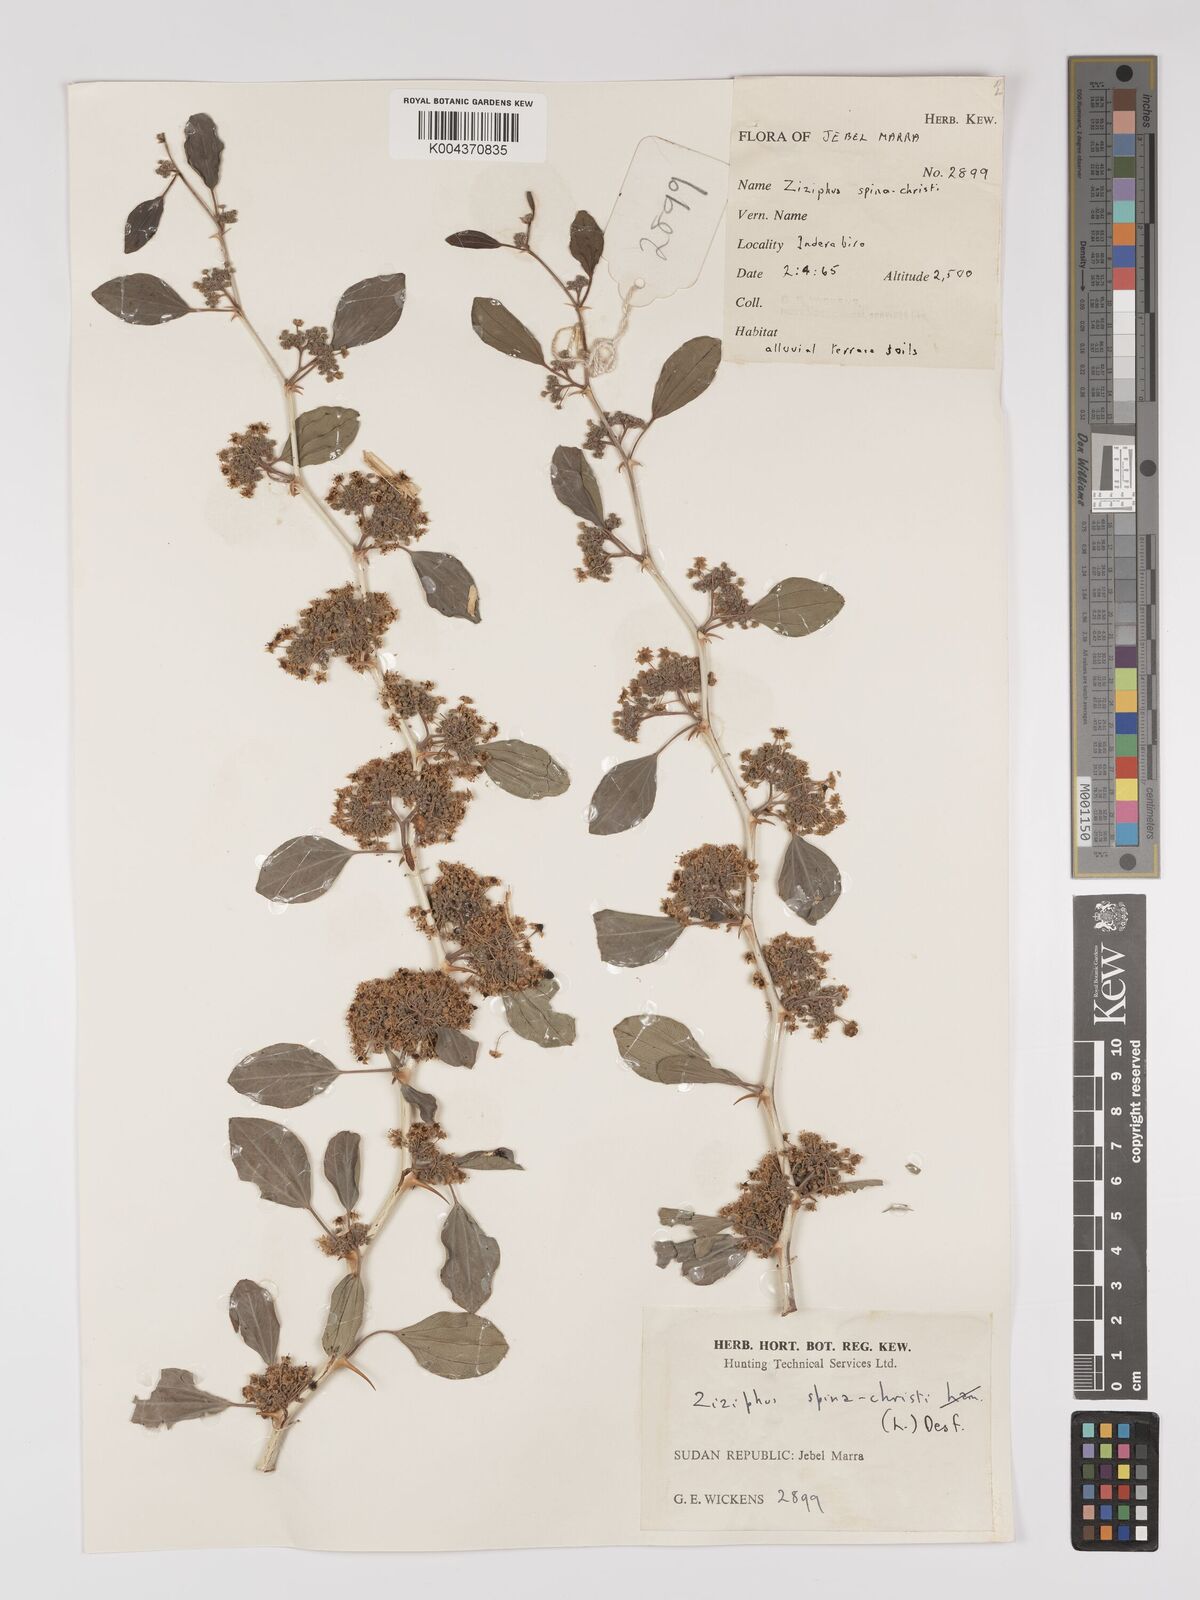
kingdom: Plantae
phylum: Tracheophyta
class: Magnoliopsida
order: Rosales
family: Rhamnaceae
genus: Ziziphus
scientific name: Ziziphus spina-christi
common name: Syrian christ-thorn
